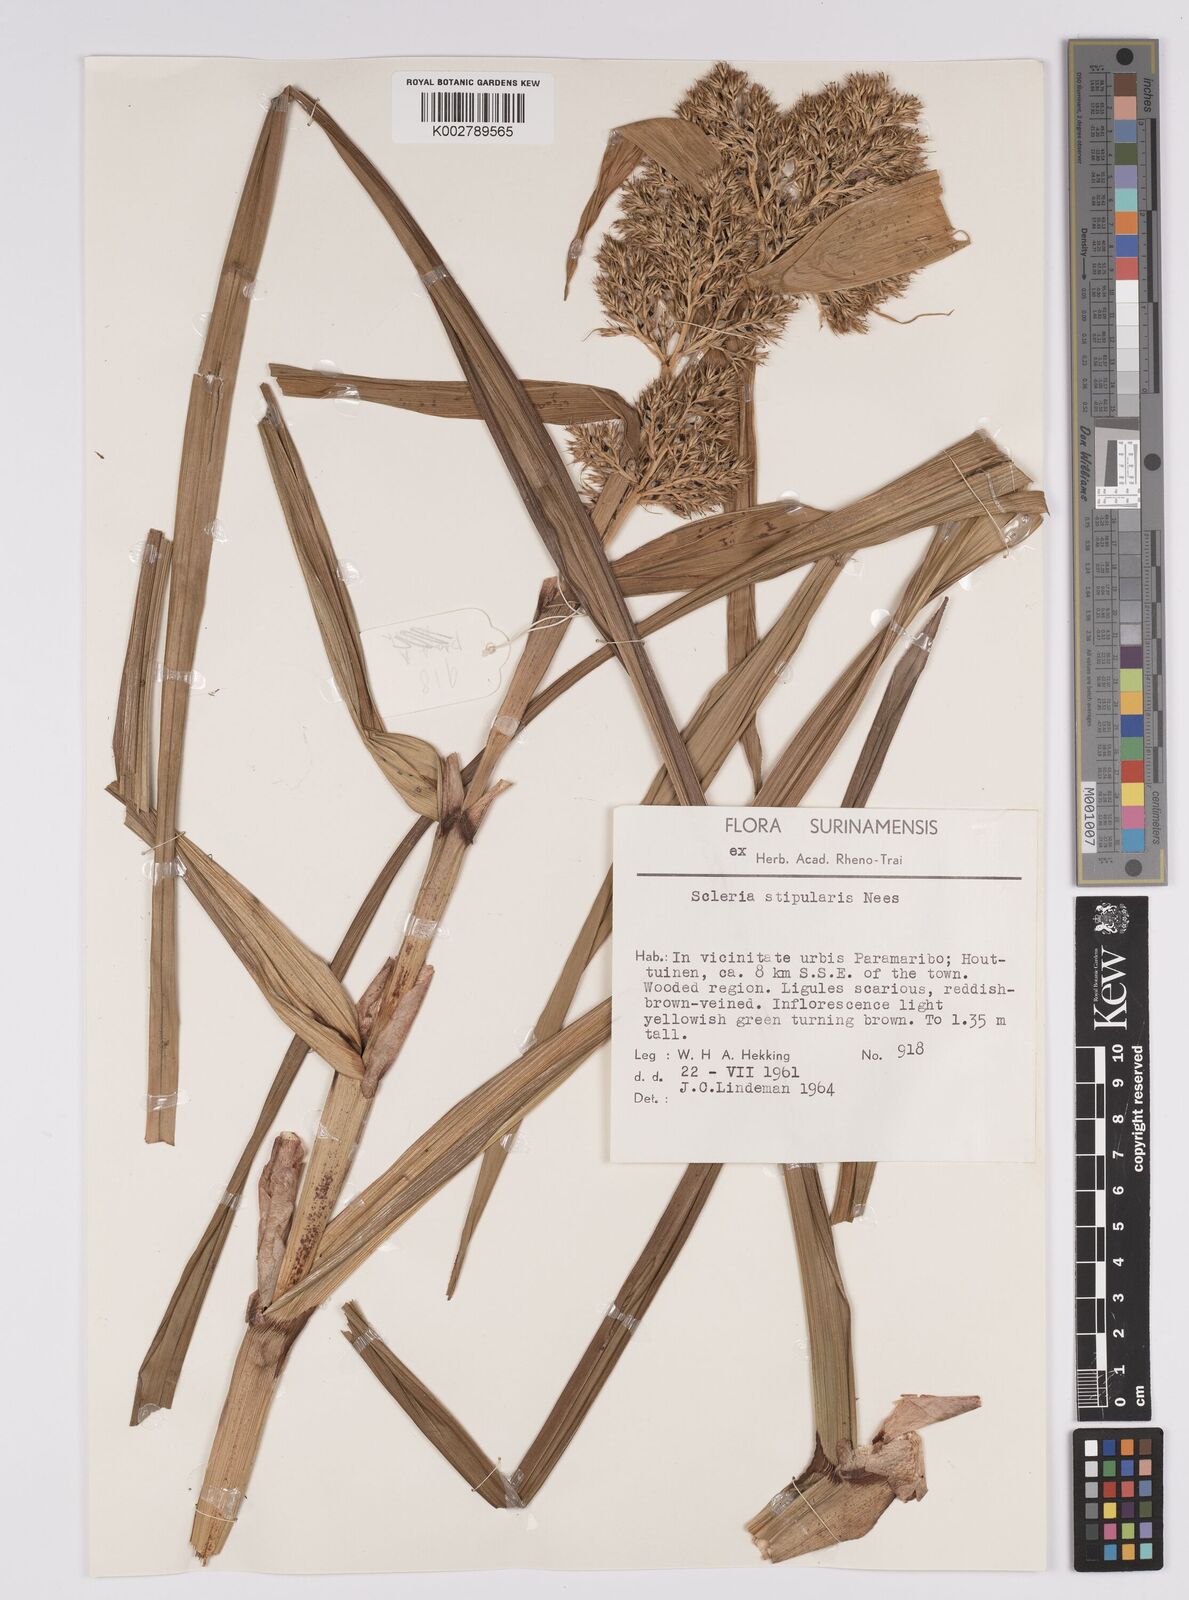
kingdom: Plantae
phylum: Tracheophyta
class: Liliopsida
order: Poales
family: Cyperaceae
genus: Scleria
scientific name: Scleria stipularis
